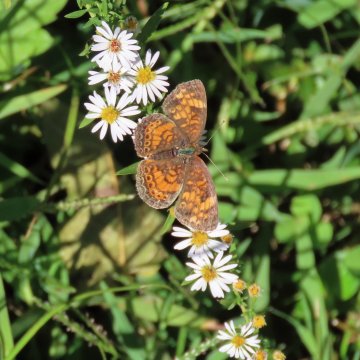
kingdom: Animalia
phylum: Arthropoda
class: Insecta
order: Lepidoptera
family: Nymphalidae
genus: Phyciodes
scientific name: Phyciodes tharos
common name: Pearl Crescent
